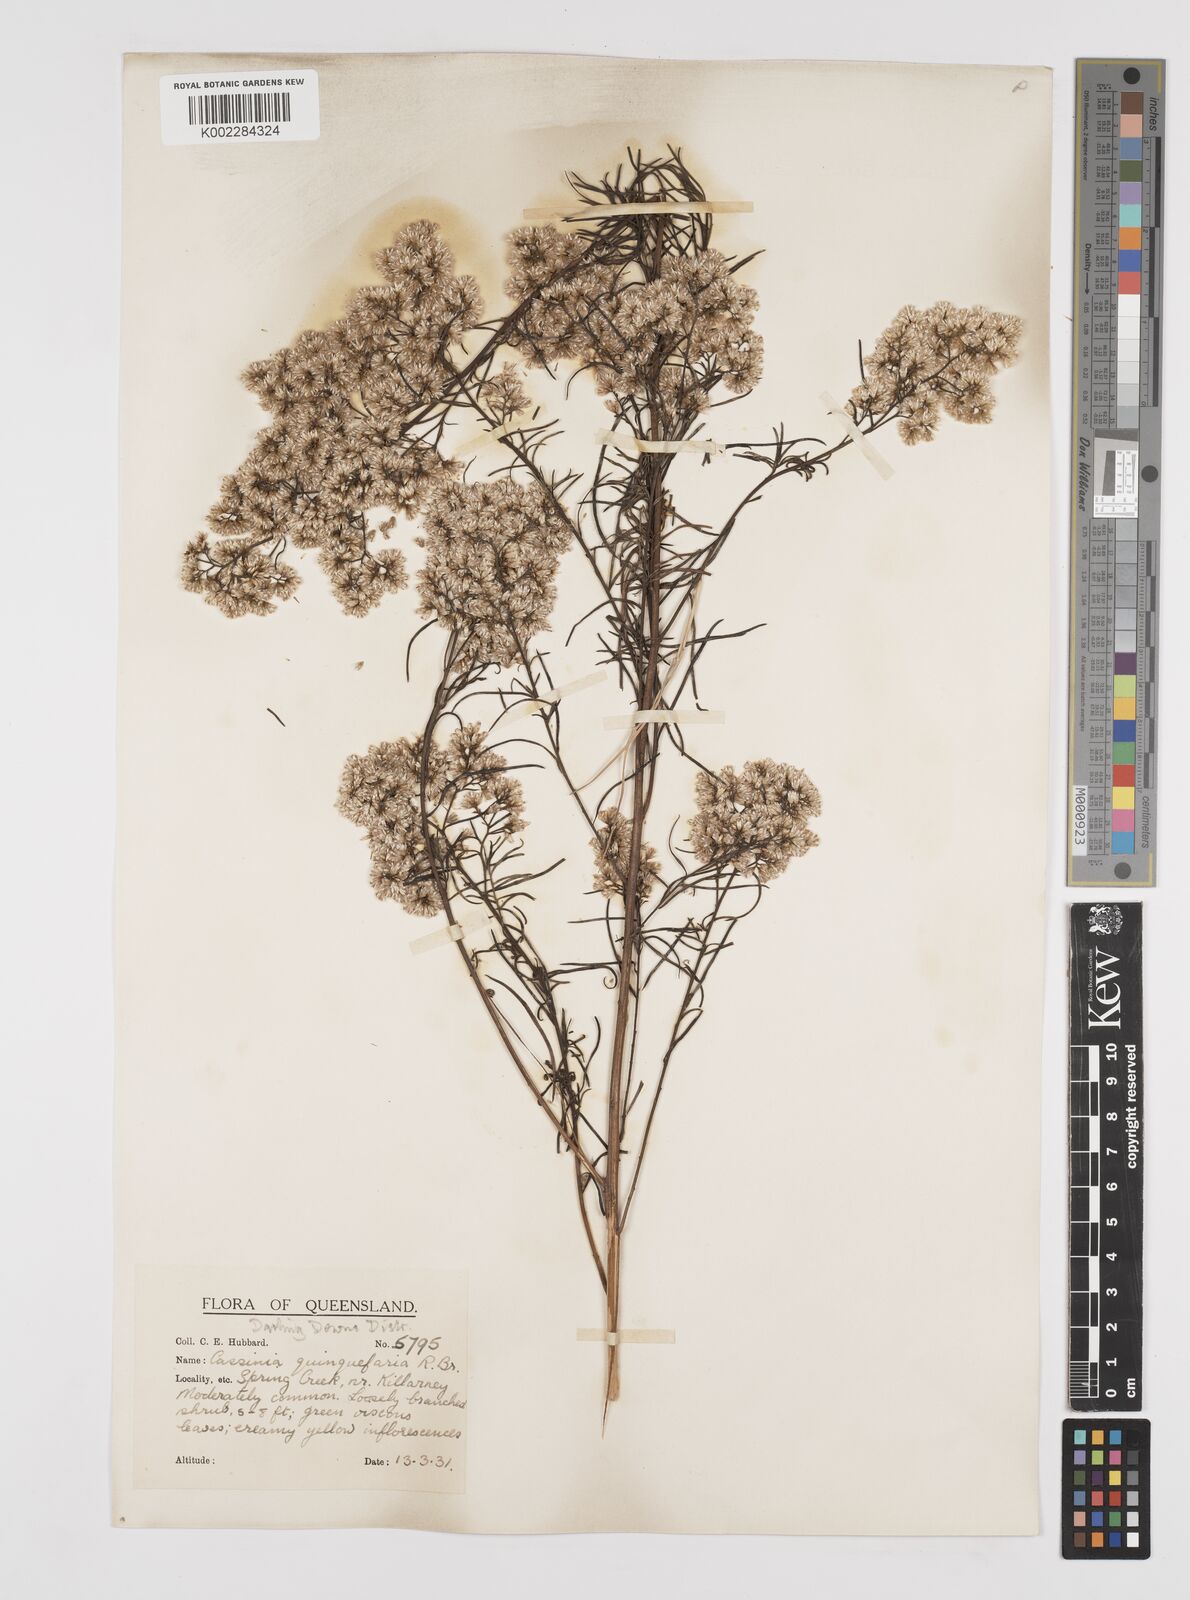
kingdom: Plantae
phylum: Tracheophyta
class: Magnoliopsida
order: Asterales
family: Asteraceae
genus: Cassinia
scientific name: Cassinia quinquefaria
